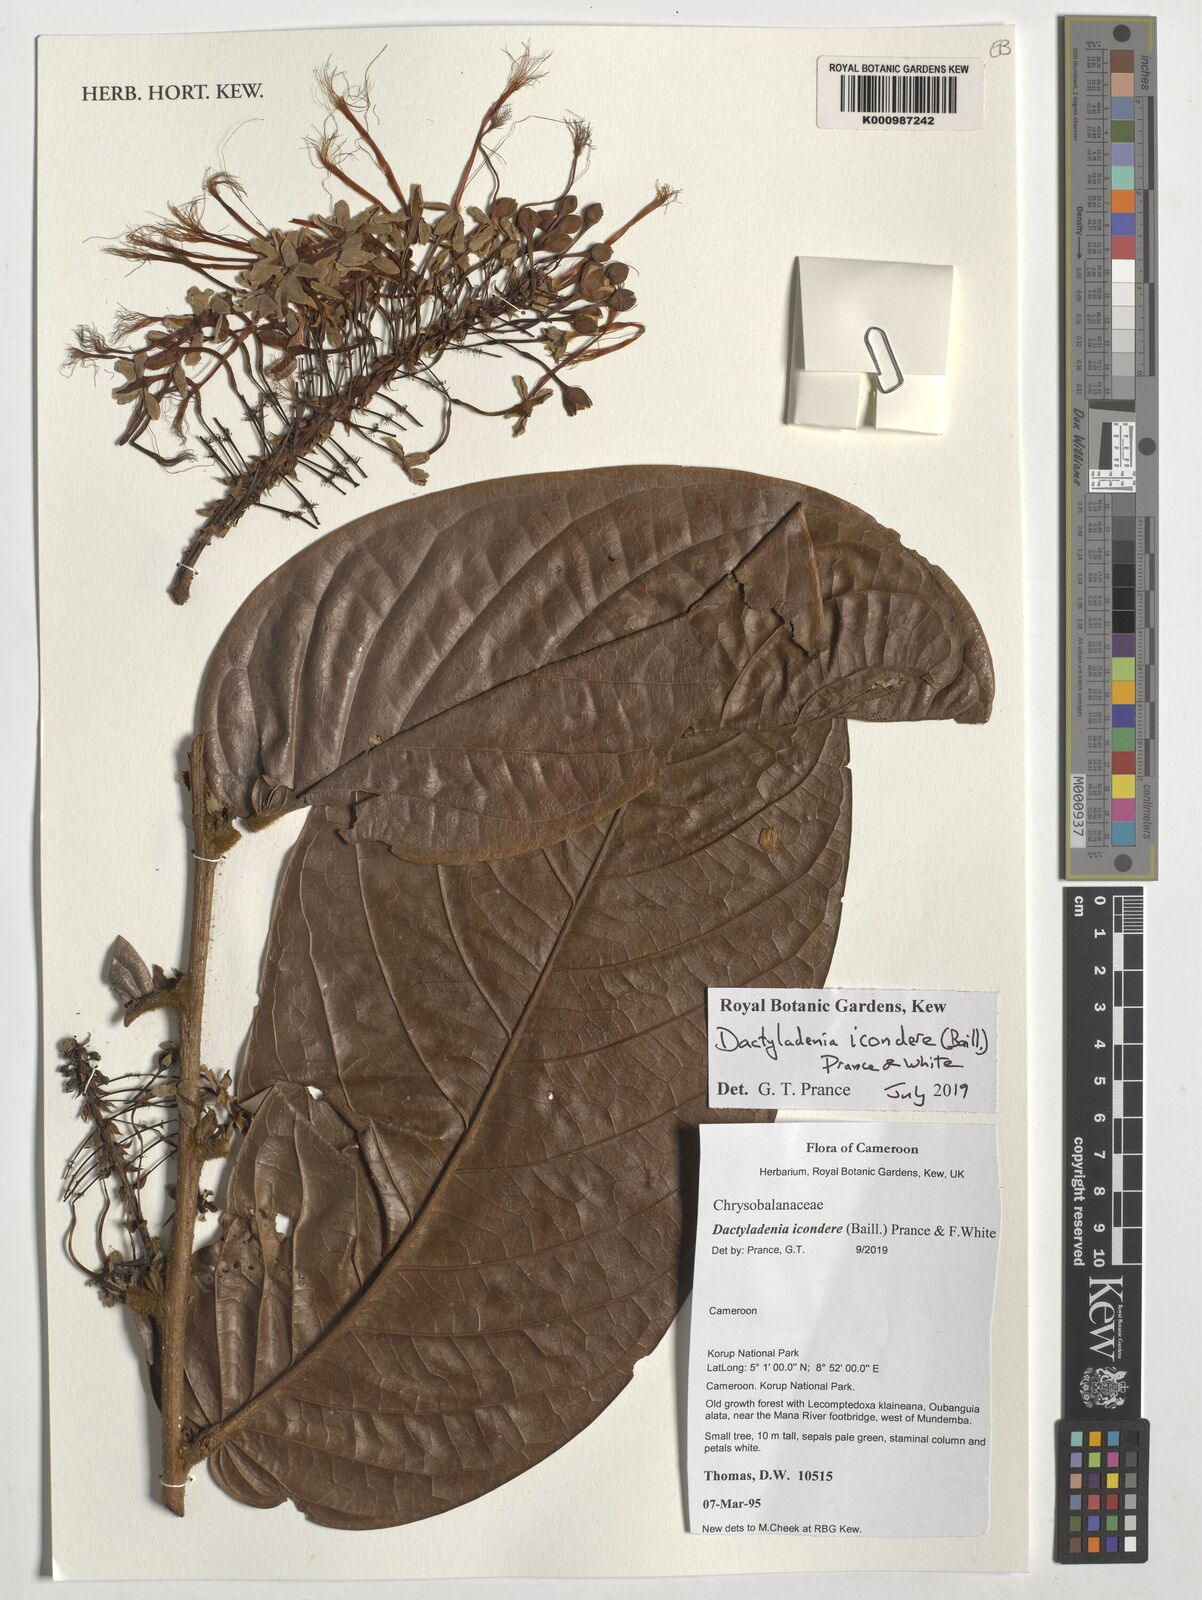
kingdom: Plantae
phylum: Tracheophyta
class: Magnoliopsida
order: Malpighiales
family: Chrysobalanaceae
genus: Dactyladenia
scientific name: Dactyladenia icondere
